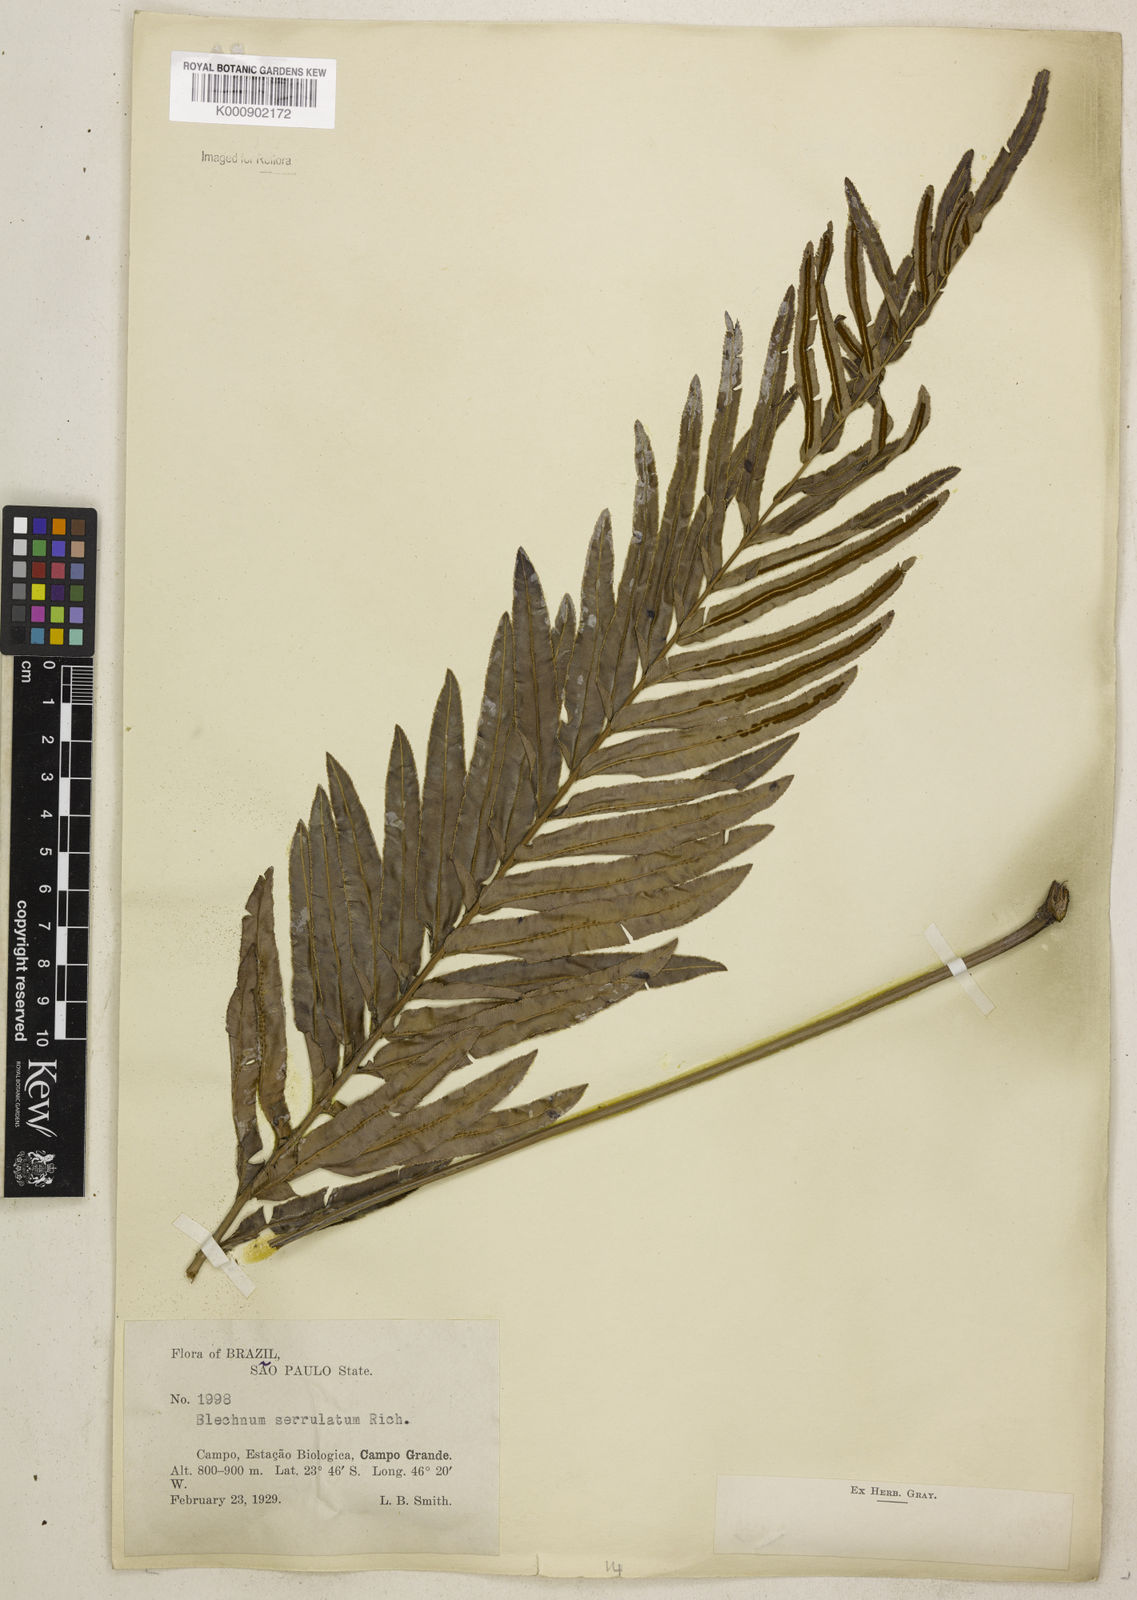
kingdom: Plantae
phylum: Tracheophyta
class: Polypodiopsida
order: Polypodiales
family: Blechnaceae
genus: Telmatoblechnum
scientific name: Telmatoblechnum serrulatum
